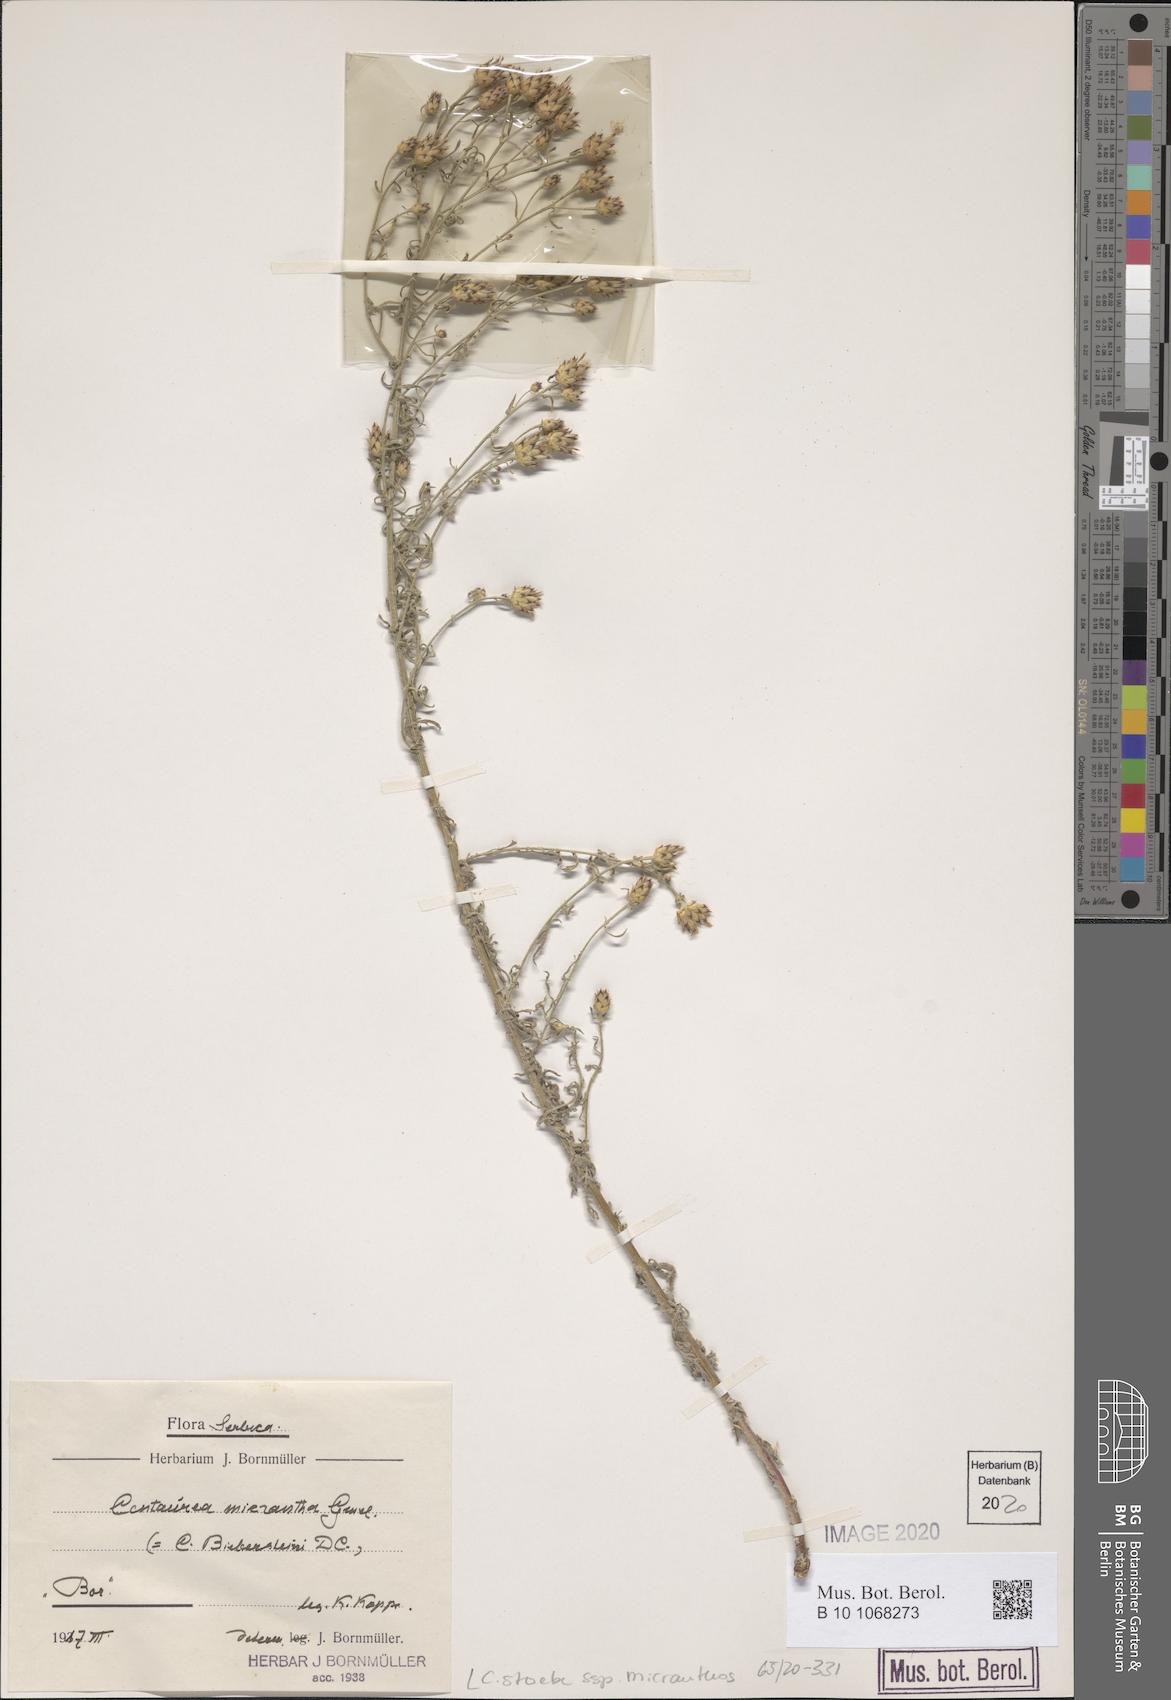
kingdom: Plantae
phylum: Tracheophyta
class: Magnoliopsida
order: Asterales
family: Asteraceae
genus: Centaurea
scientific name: Centaurea australis
